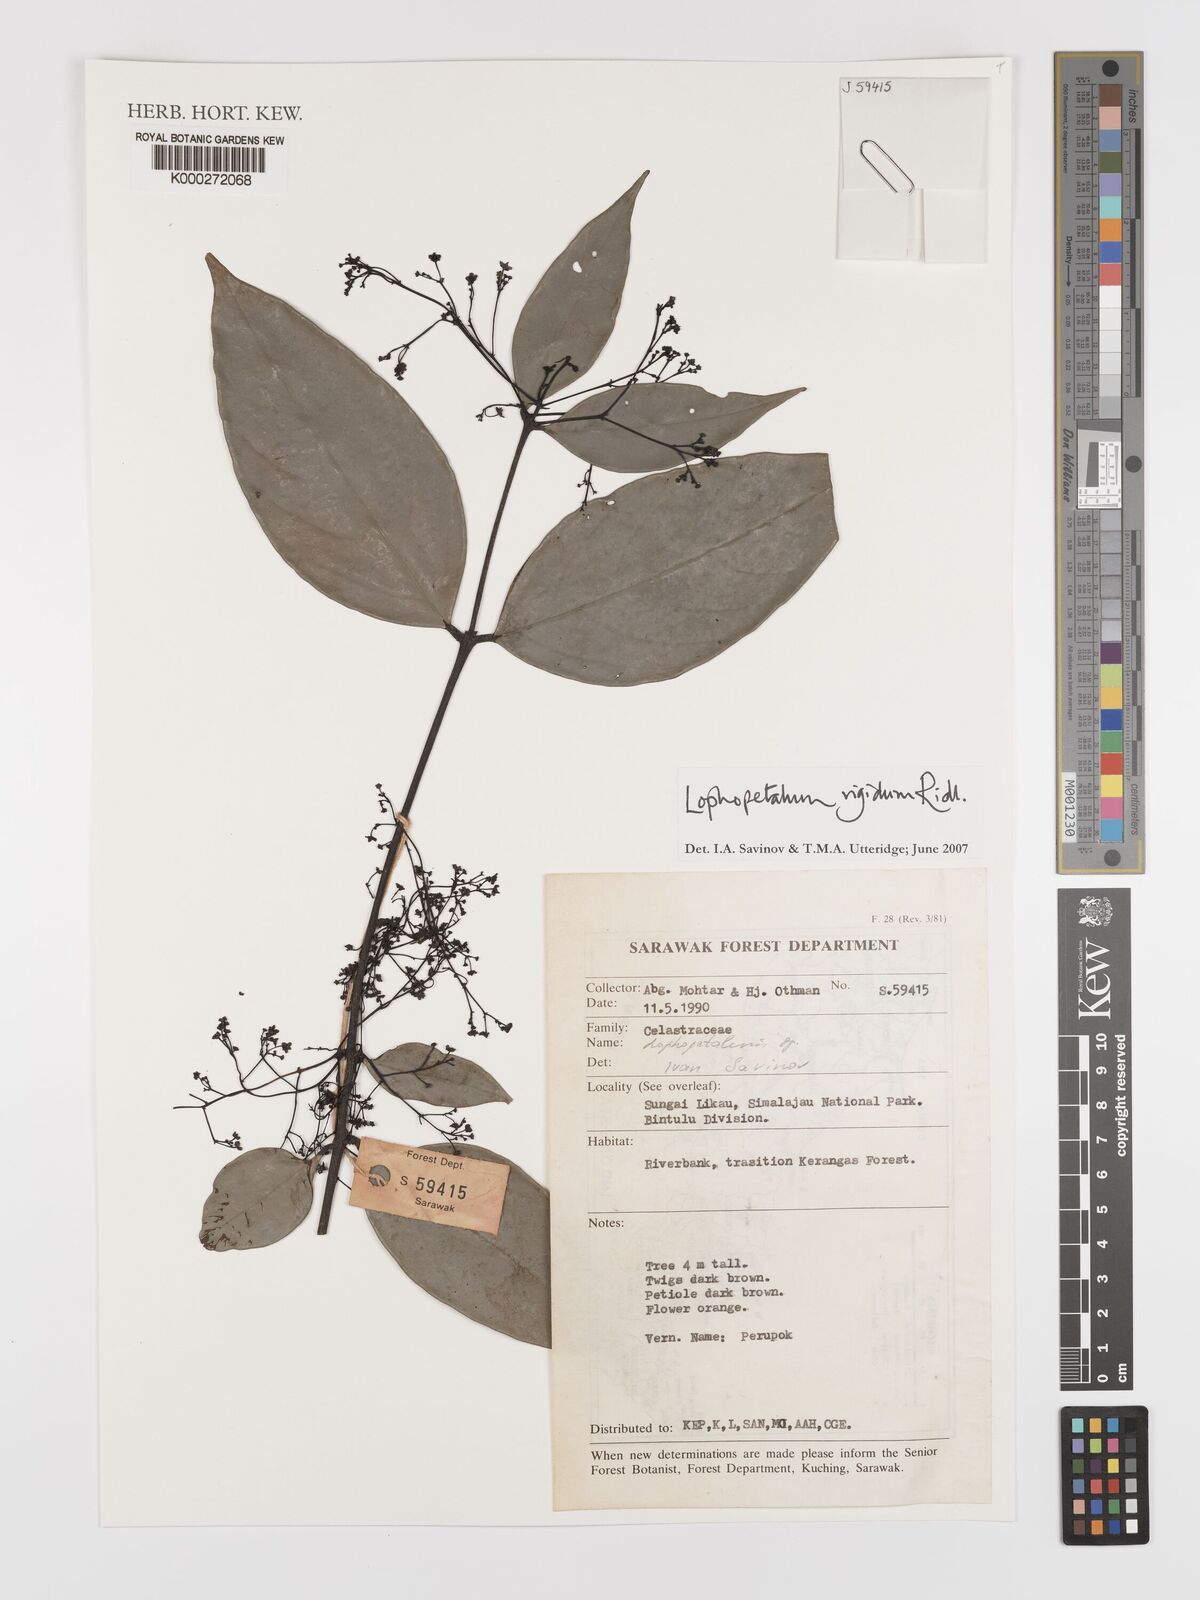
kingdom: Plantae
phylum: Tracheophyta
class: Magnoliopsida
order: Celastrales
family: Celastraceae
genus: Lophopetalum
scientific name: Lophopetalum rigidum
